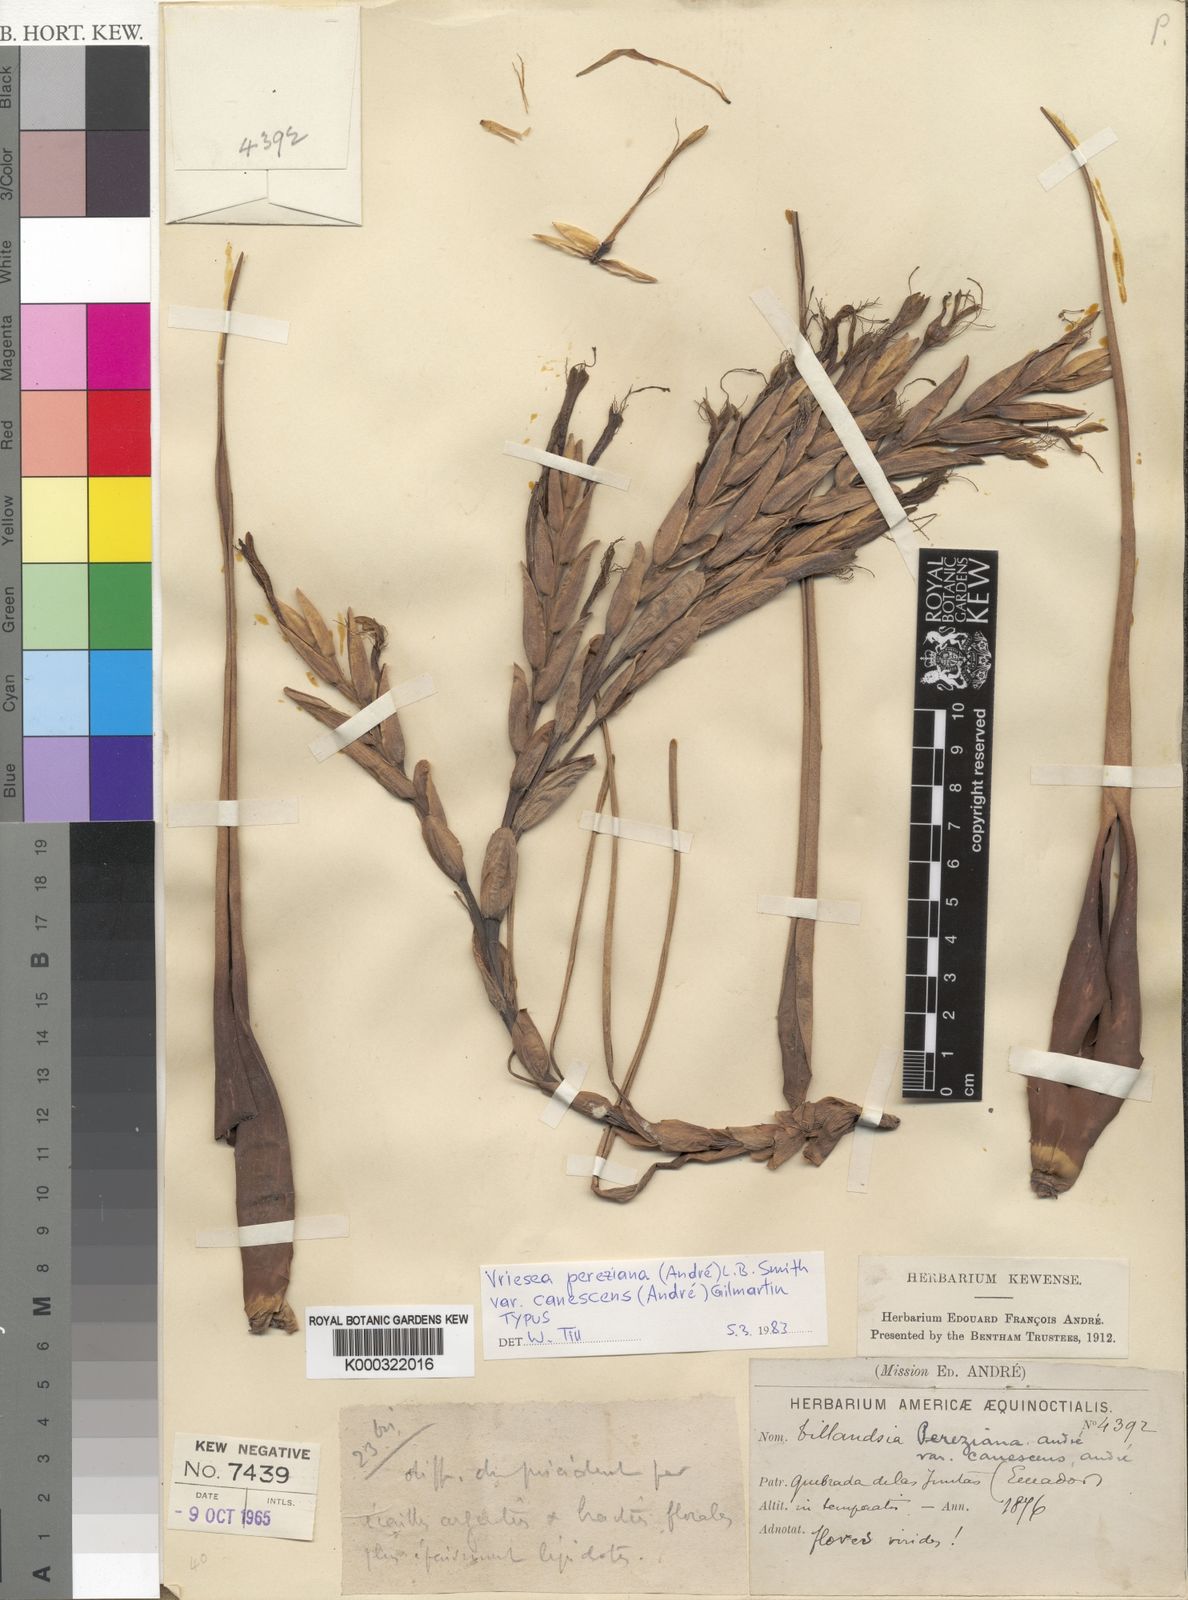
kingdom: Plantae
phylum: Tracheophyta
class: Liliopsida
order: Poales
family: Bromeliaceae
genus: Vriesea
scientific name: Vriesea pereziana
